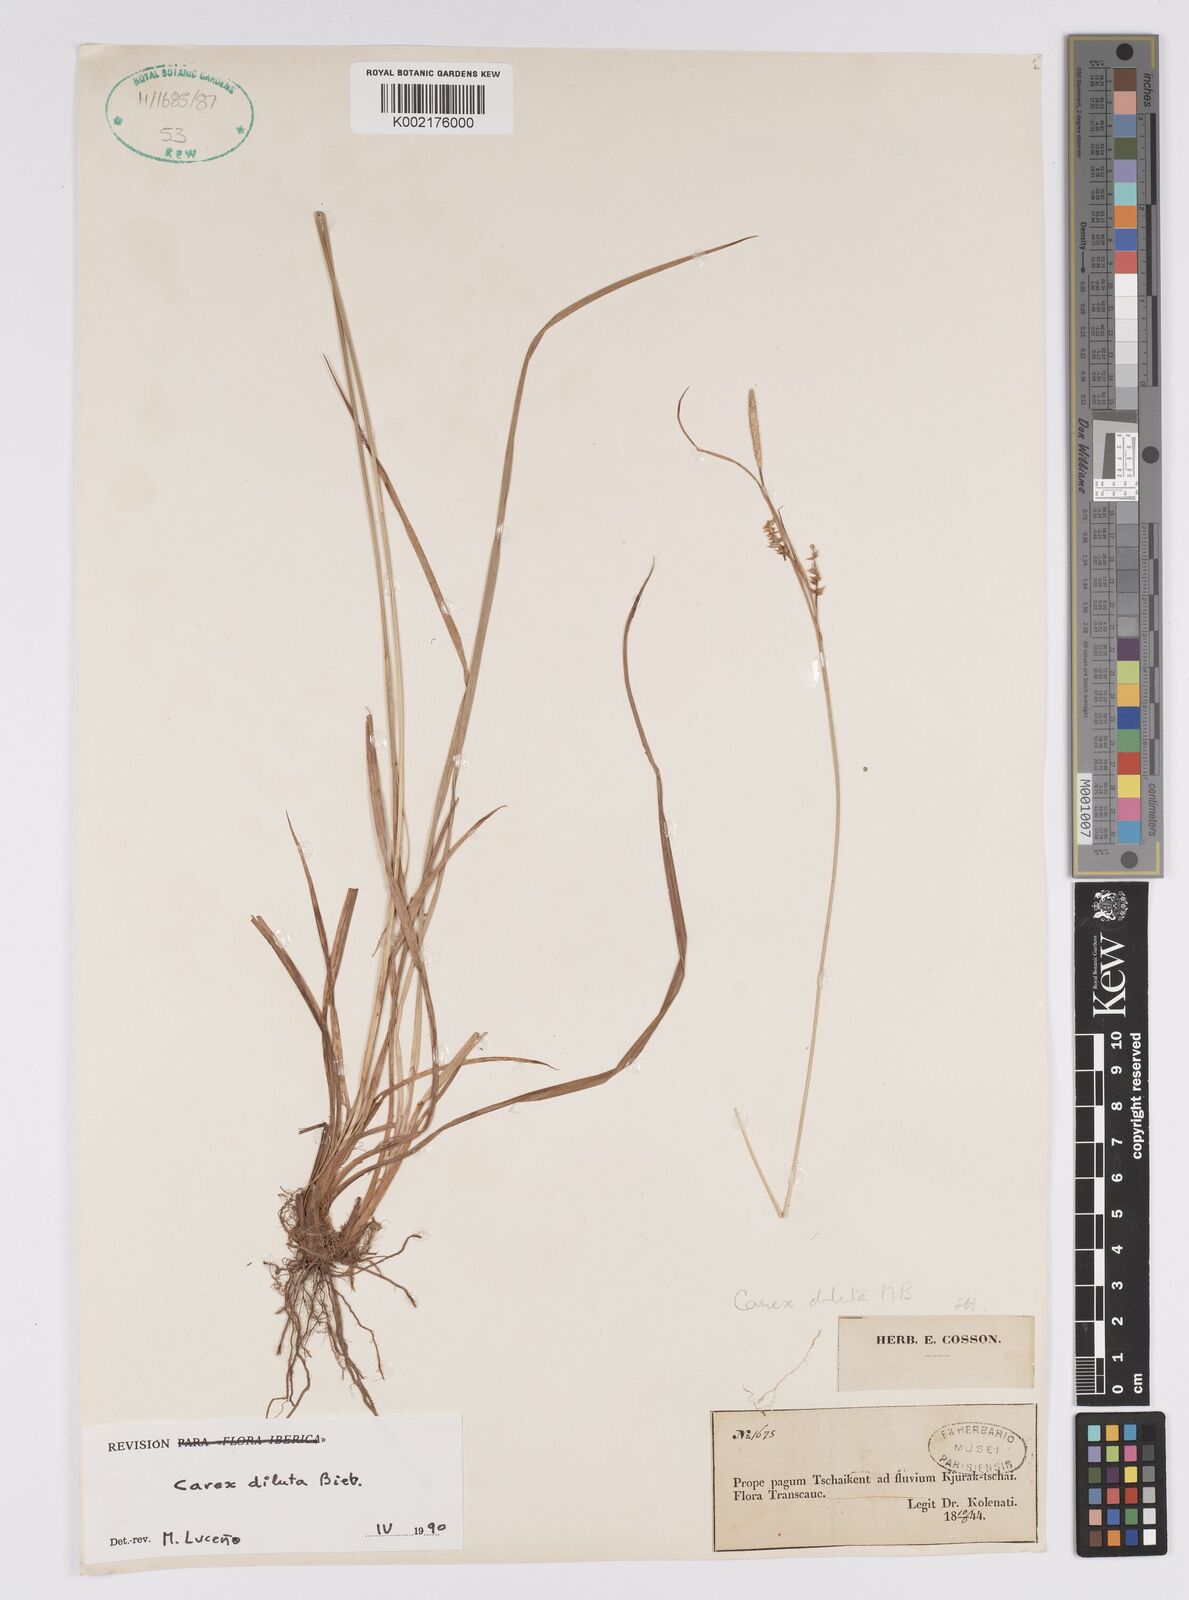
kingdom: Plantae
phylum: Tracheophyta
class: Liliopsida
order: Poales
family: Cyperaceae
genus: Carex
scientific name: Carex diluta
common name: Sedge
